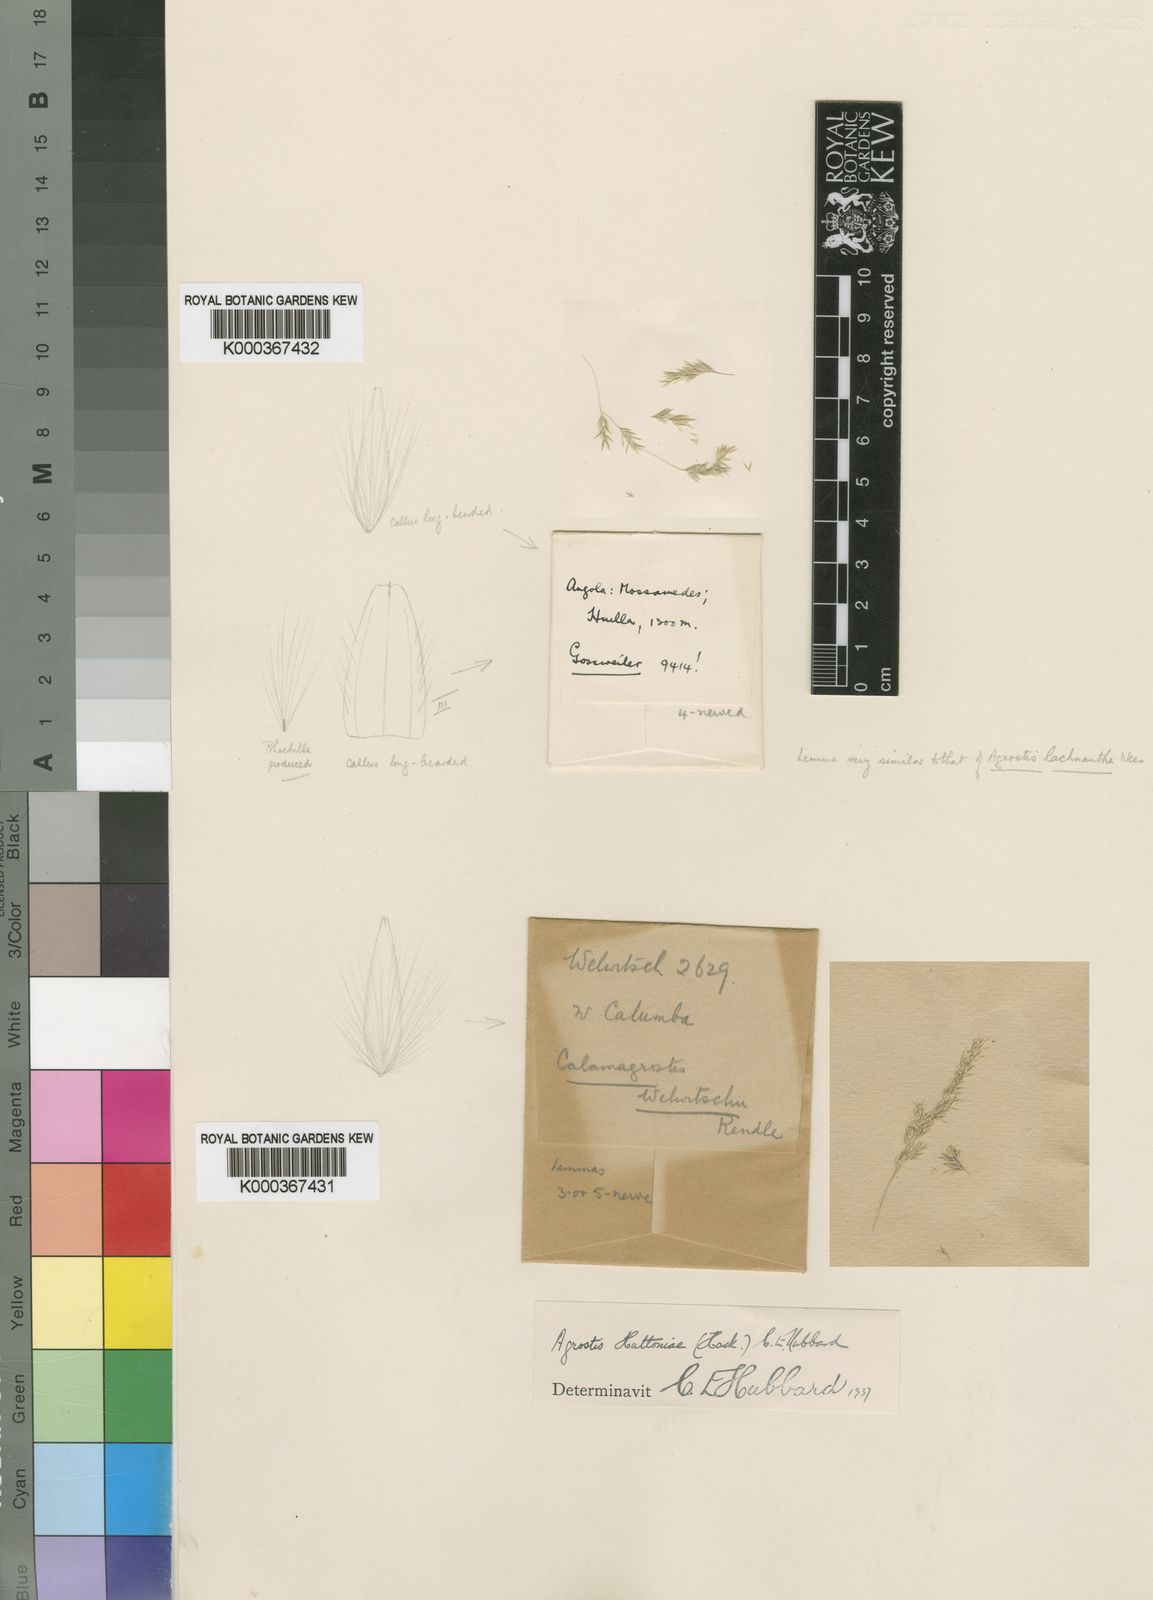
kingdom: Plantae
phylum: Tracheophyta
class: Liliopsida
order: Poales
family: Poaceae
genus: Lachnagrostis
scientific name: Lachnagrostis lachnantha
